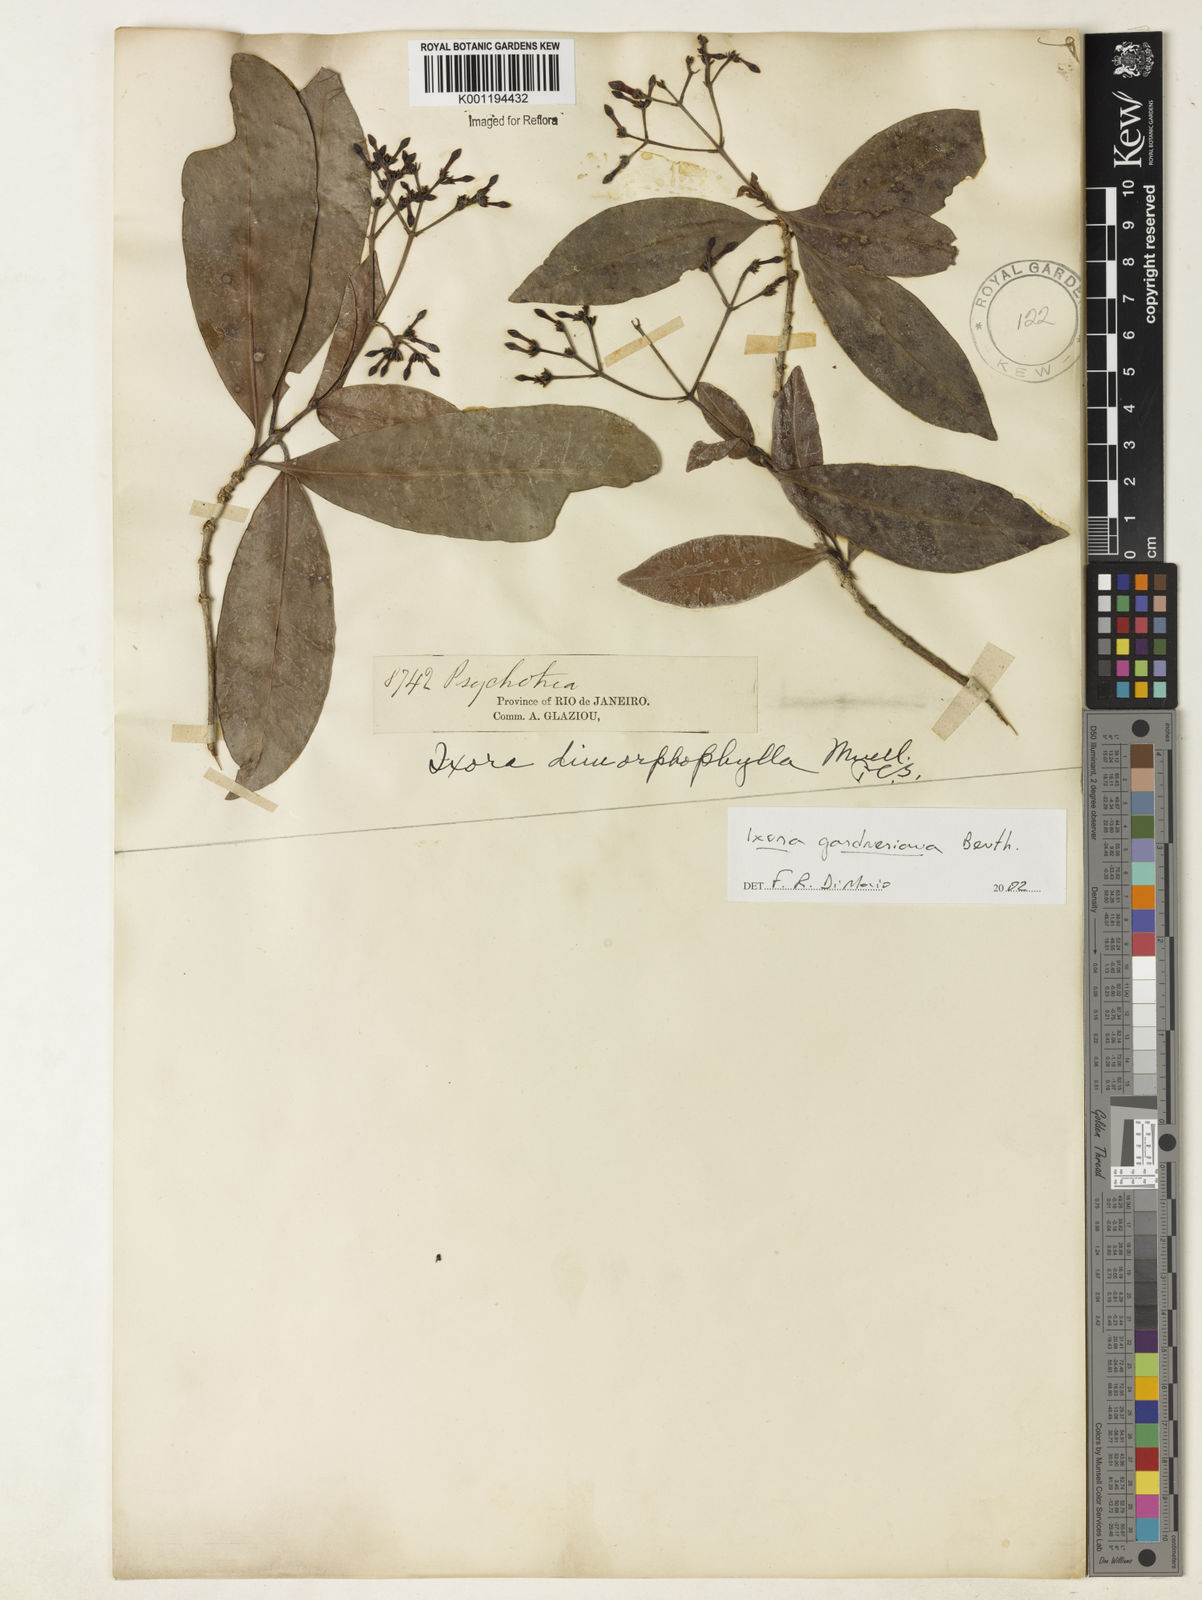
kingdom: Plantae
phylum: Tracheophyta
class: Magnoliopsida
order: Gentianales
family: Rubiaceae
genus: Ixora
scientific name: Ixora gardneriana
